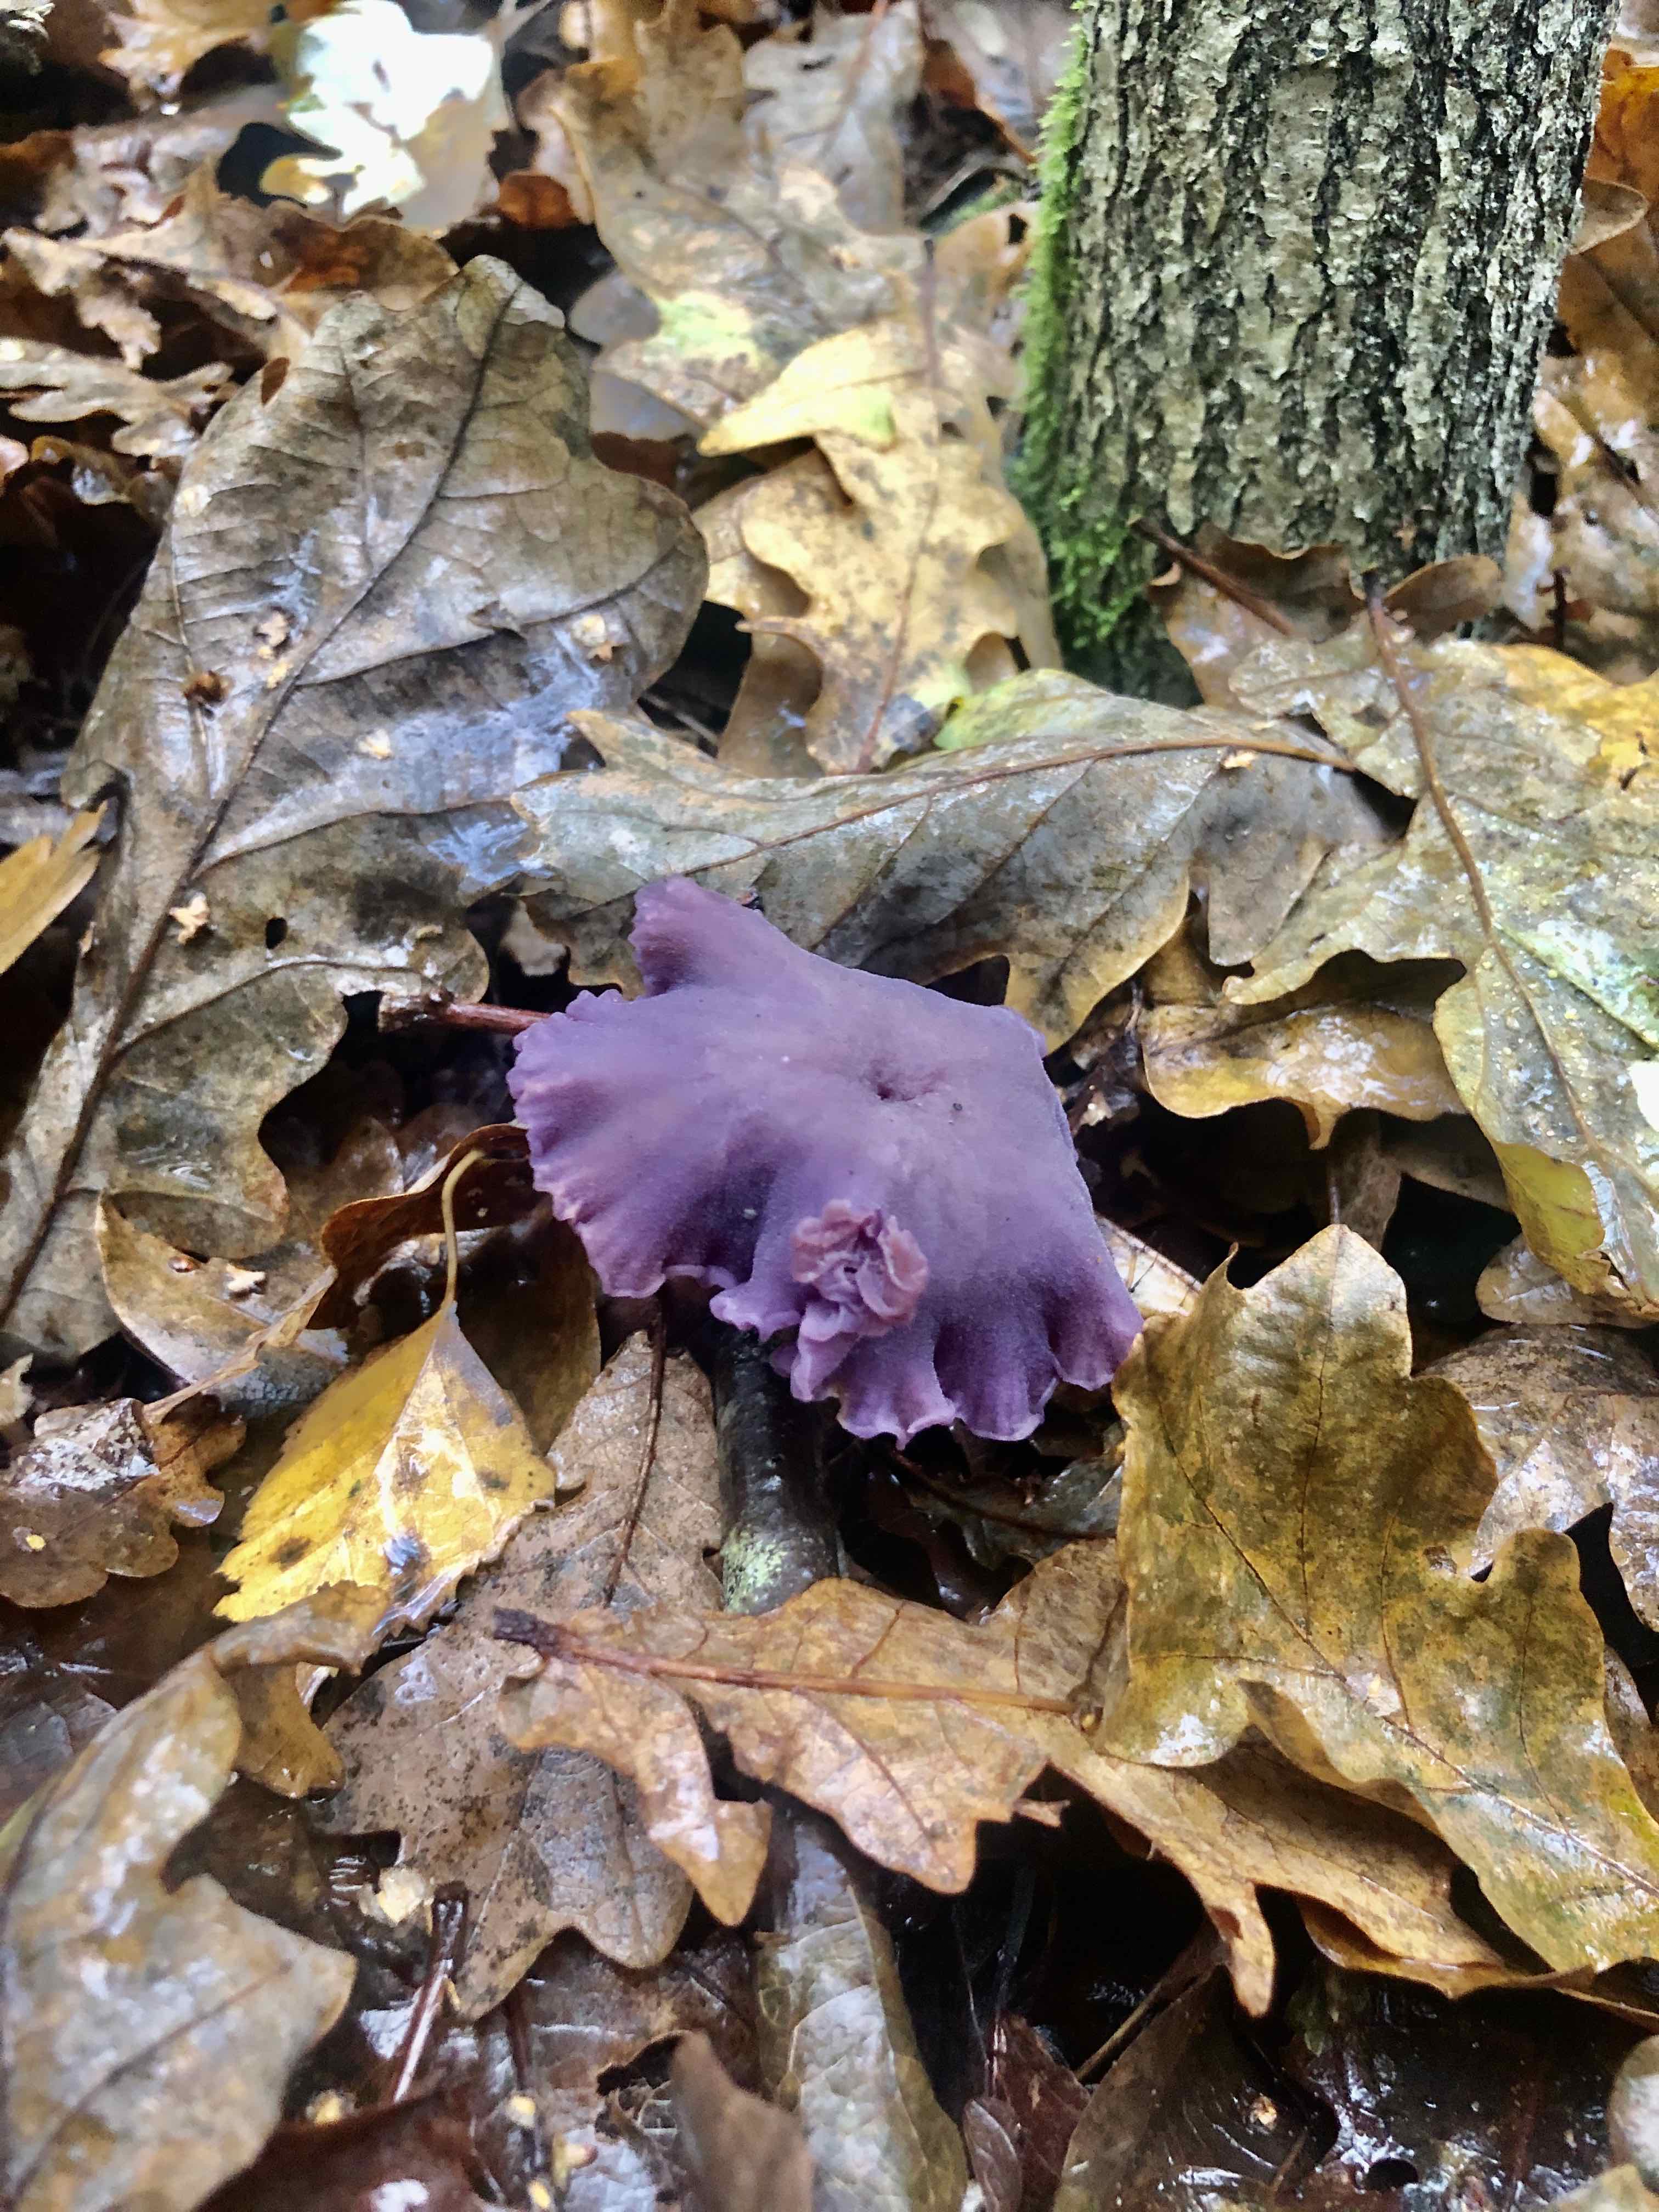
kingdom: Fungi
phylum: Basidiomycota
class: Agaricomycetes
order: Agaricales
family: Hydnangiaceae
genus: Laccaria
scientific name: Laccaria amethystina
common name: violet ametysthat
